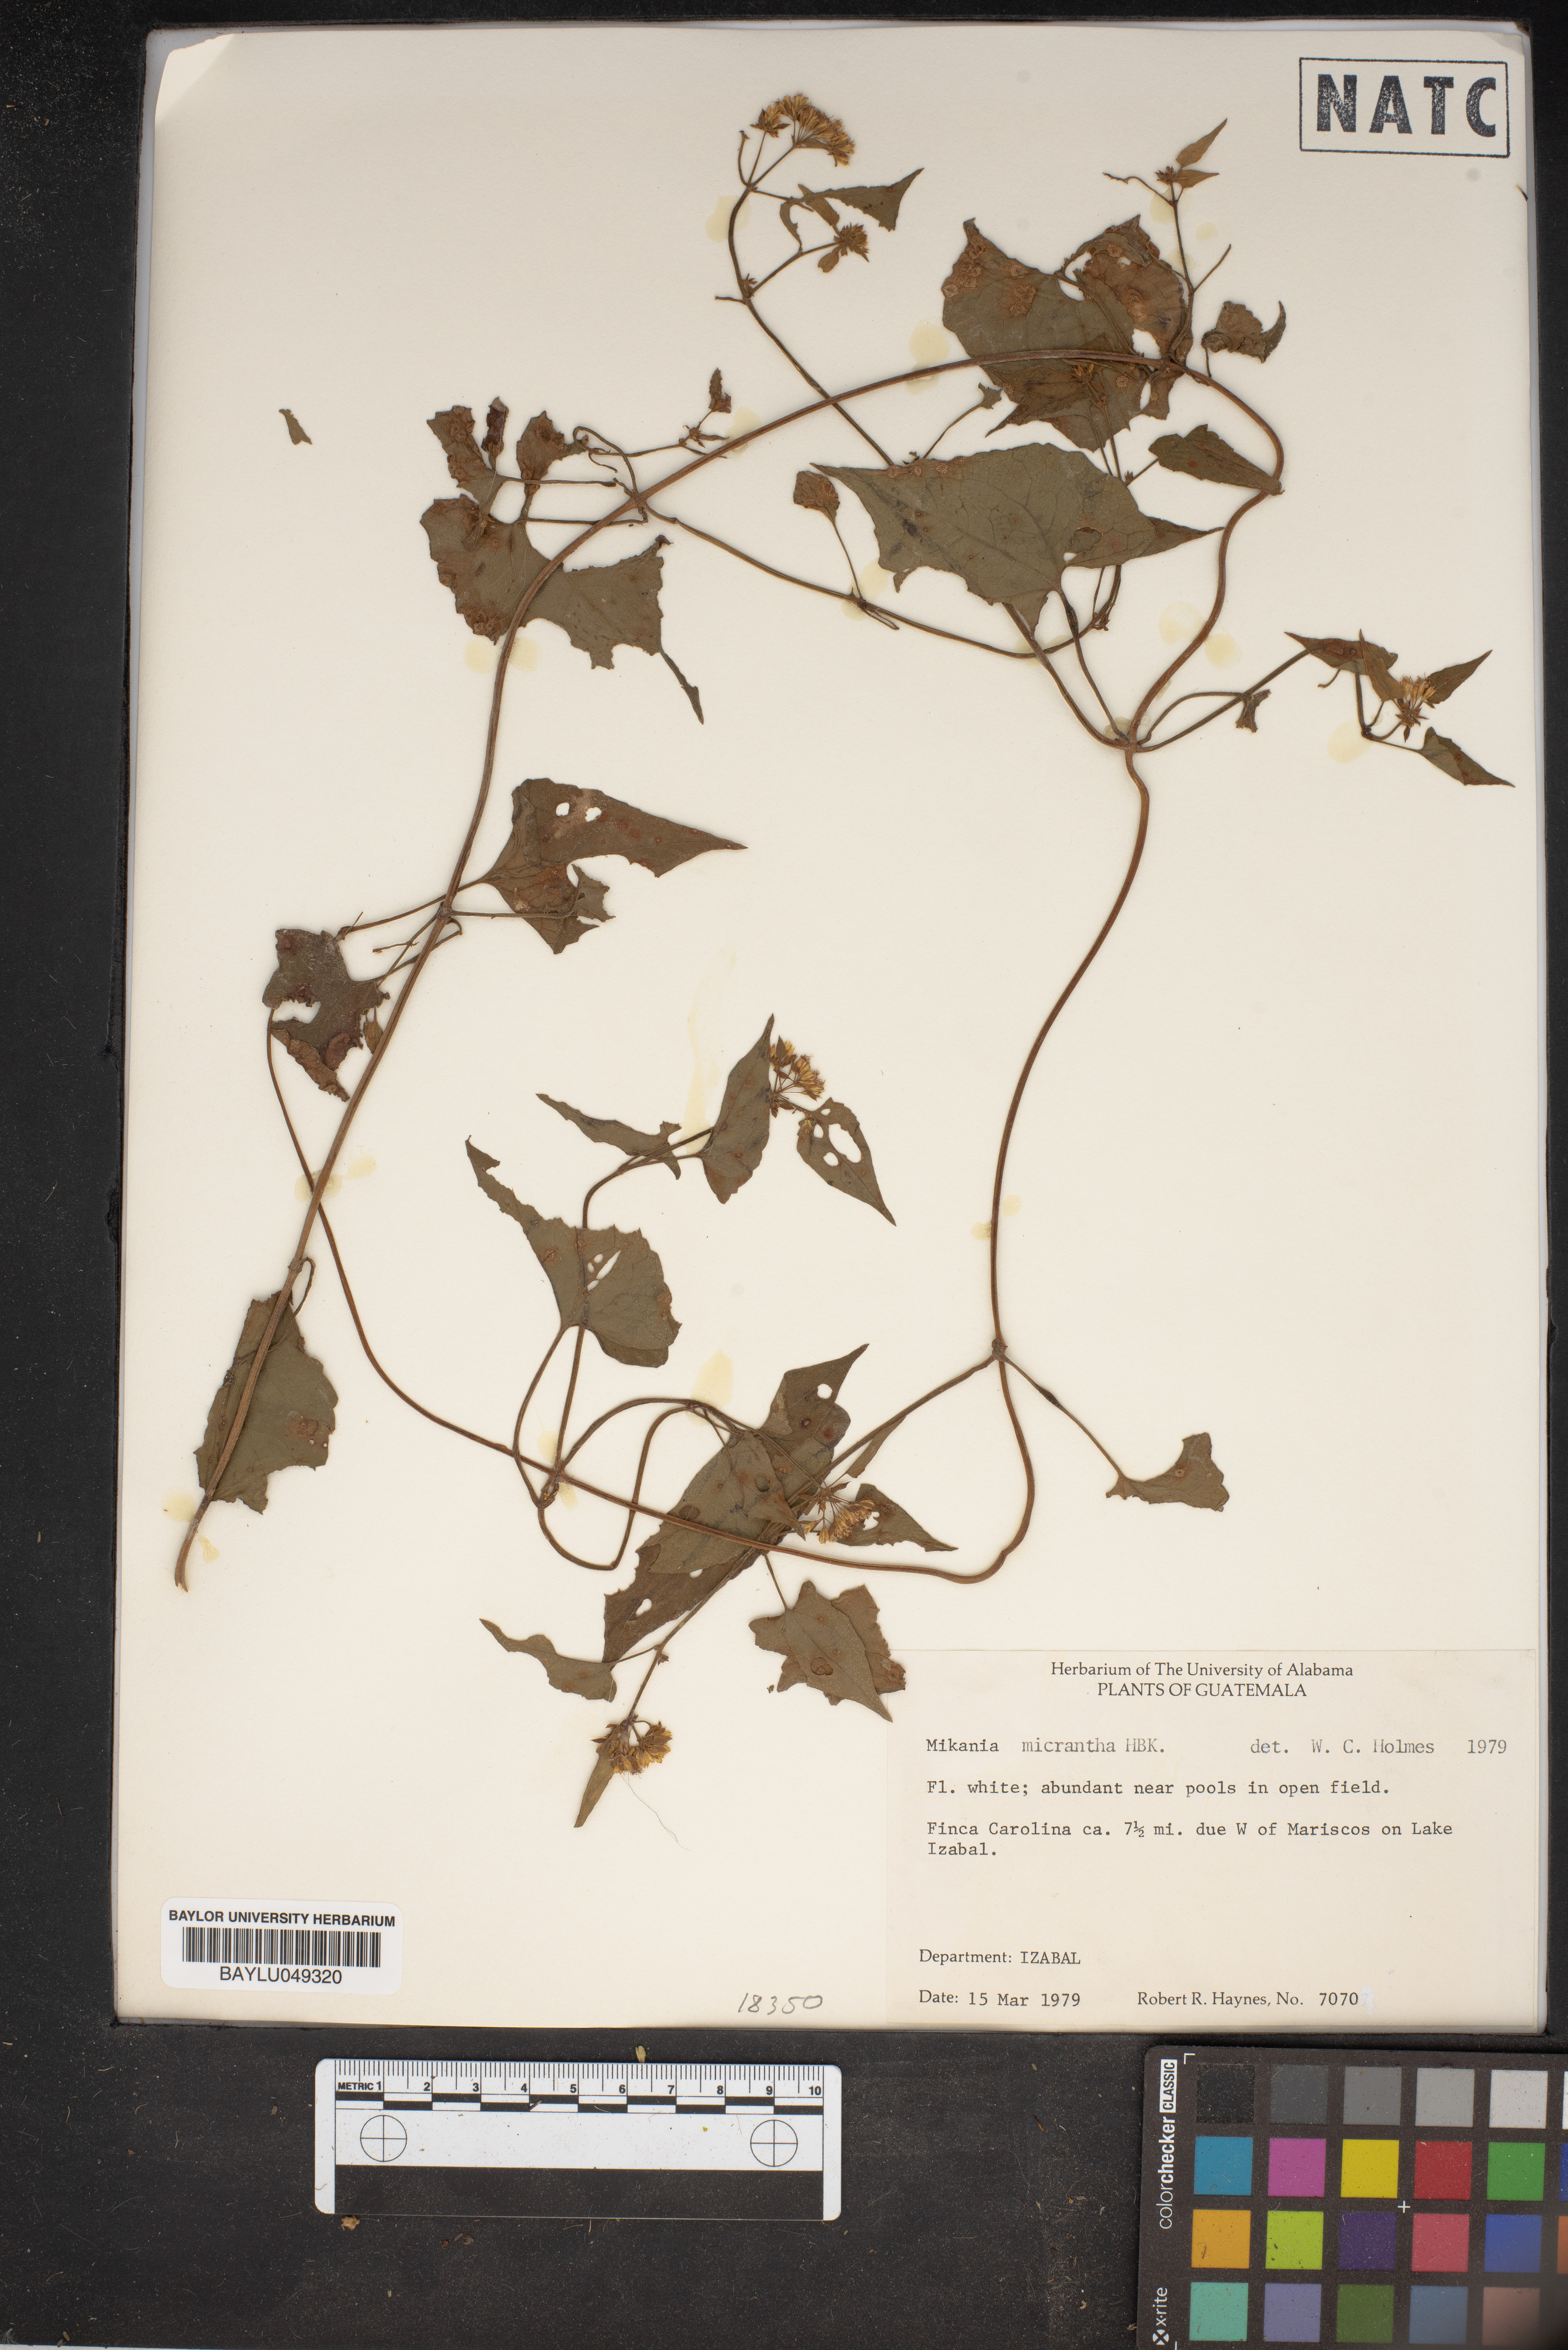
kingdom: Plantae
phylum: Tracheophyta
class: Magnoliopsida
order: Asterales
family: Asteraceae
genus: Mikania
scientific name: Mikania micrantha
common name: Mile-a-minute
